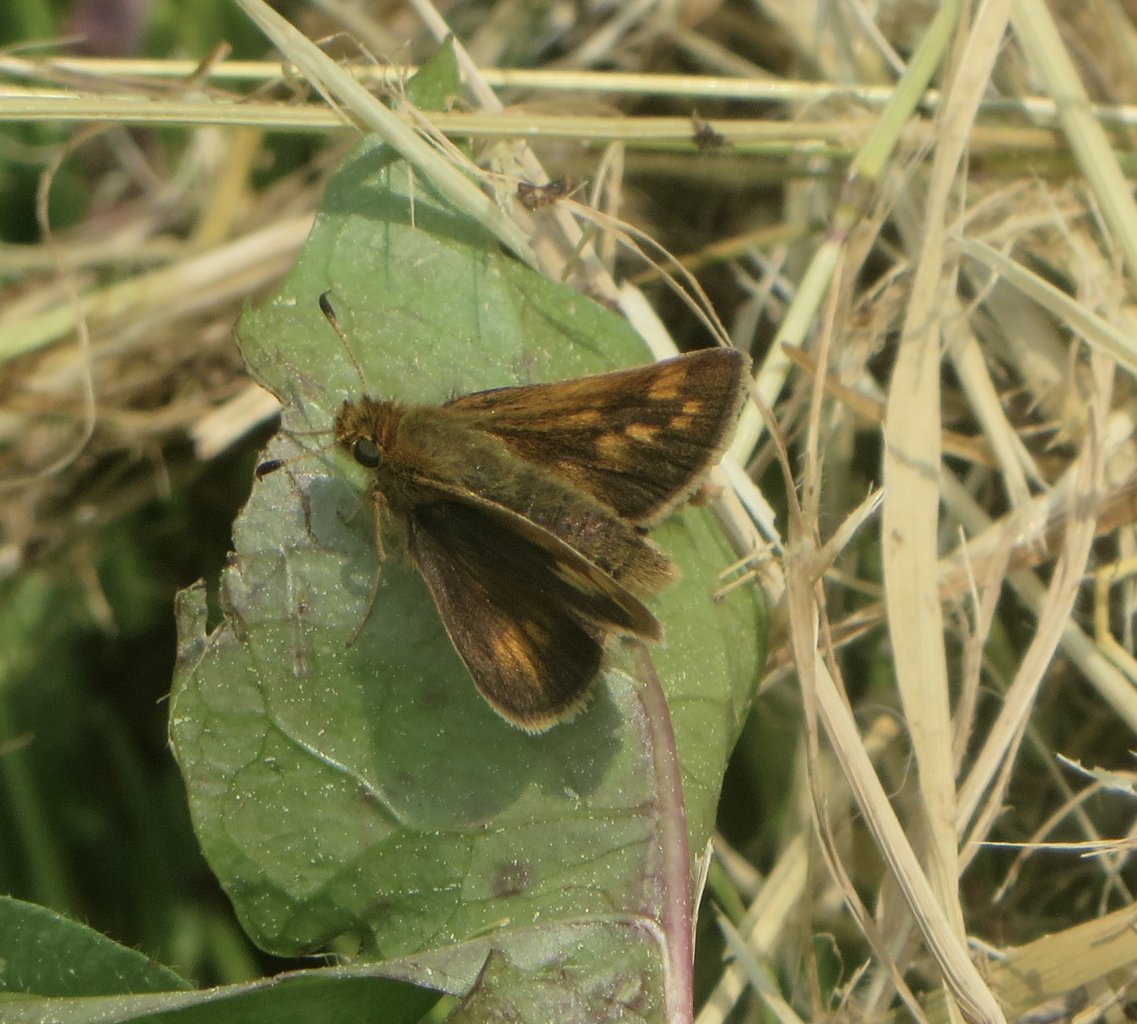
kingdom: Animalia
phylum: Arthropoda
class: Insecta
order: Lepidoptera
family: Hesperiidae
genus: Polites
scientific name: Polites coras
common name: Peck's Skipper
